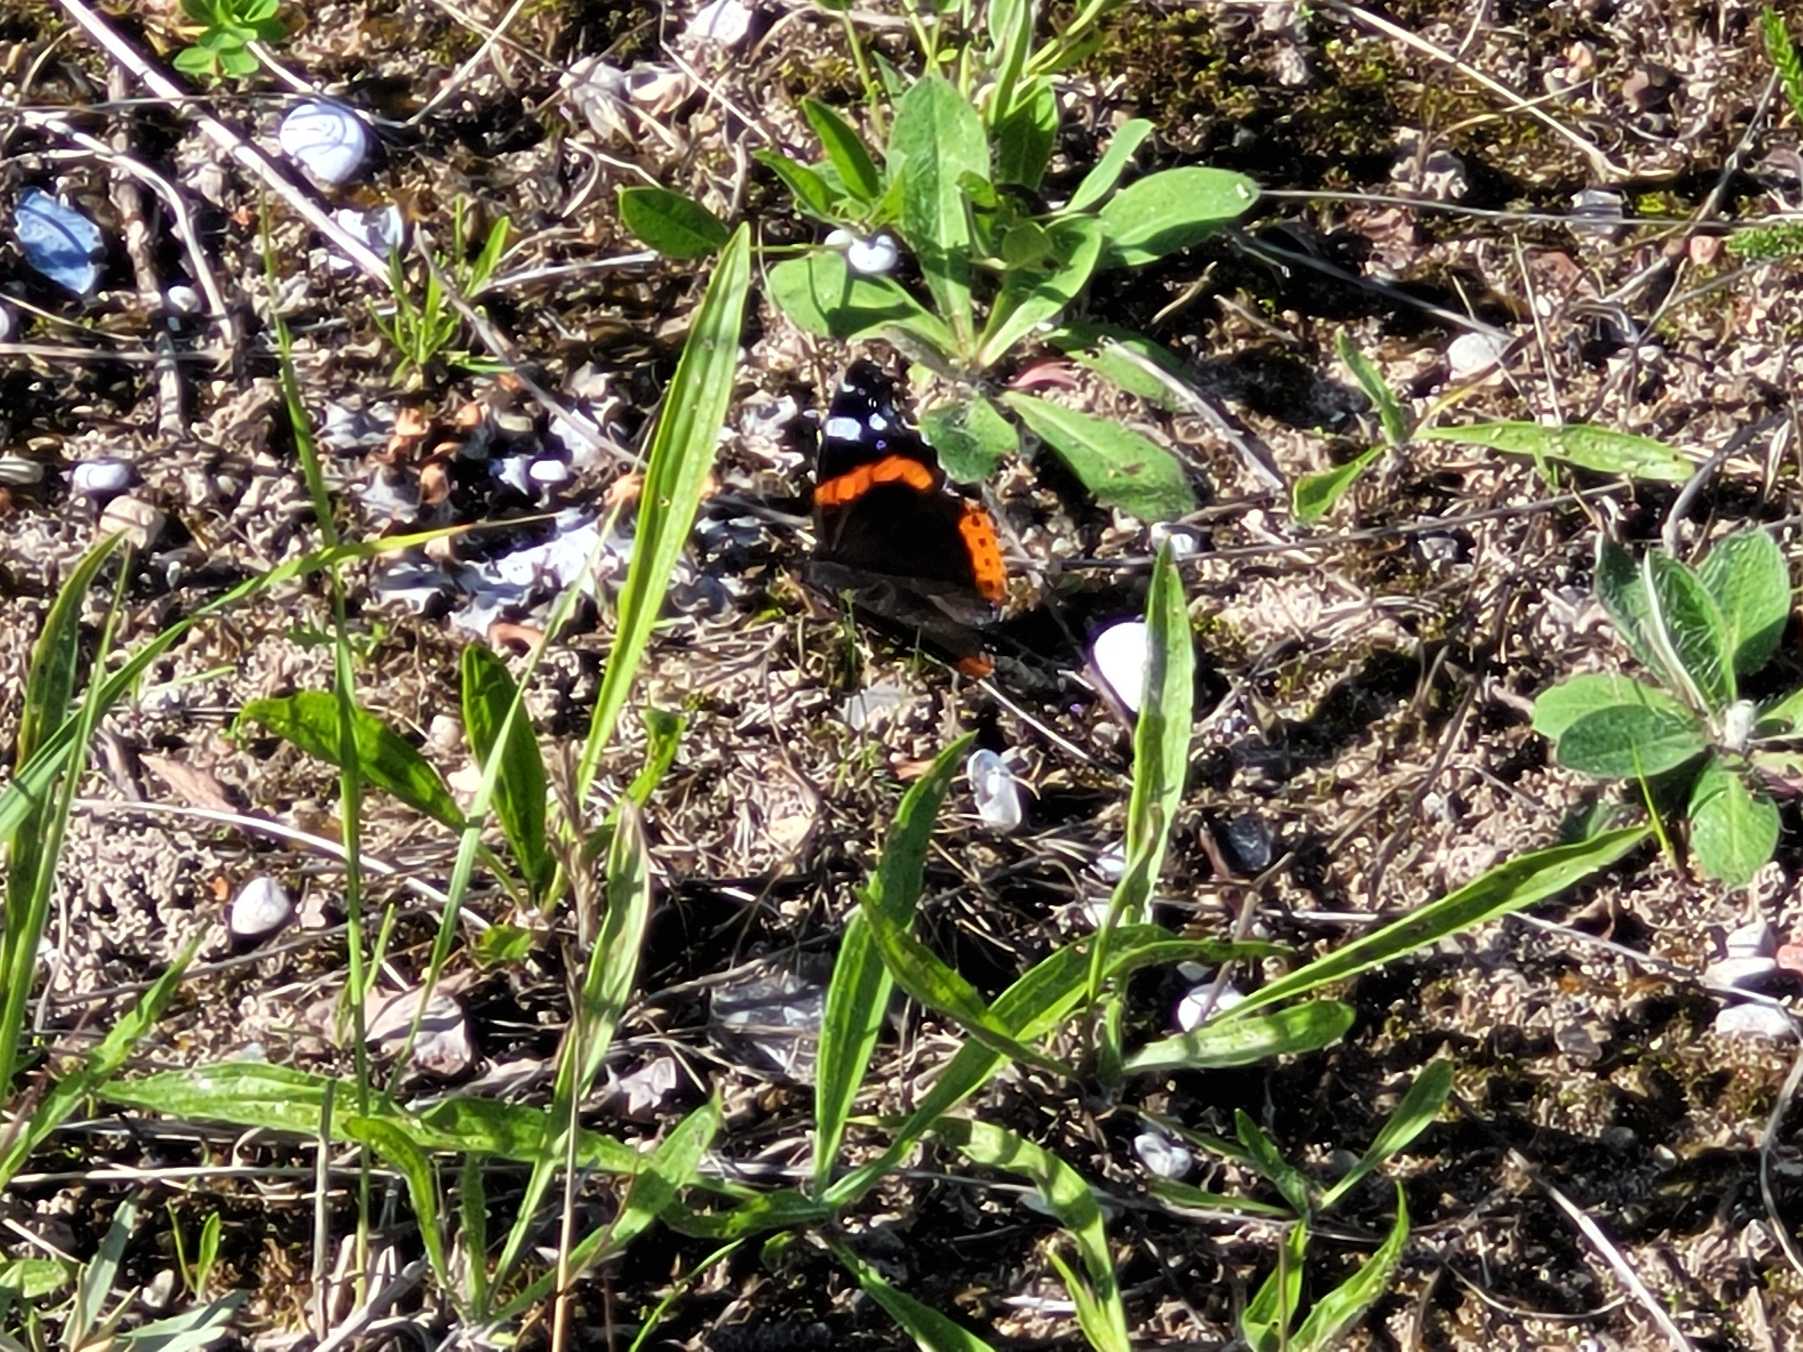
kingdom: Animalia
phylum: Arthropoda
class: Insecta
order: Lepidoptera
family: Nymphalidae
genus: Vanessa
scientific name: Vanessa atalanta
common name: Admiral
